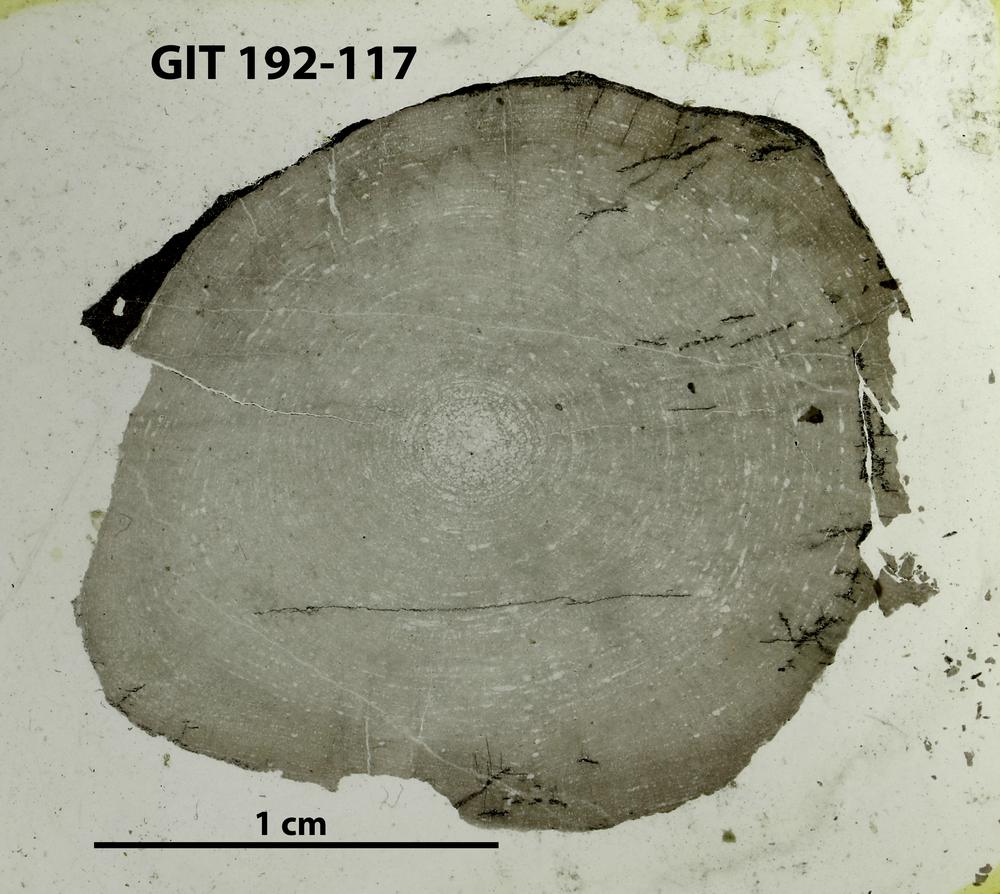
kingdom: Animalia
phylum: Porifera
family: Densastromatidae
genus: Araneosustroma
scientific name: Araneosustroma
